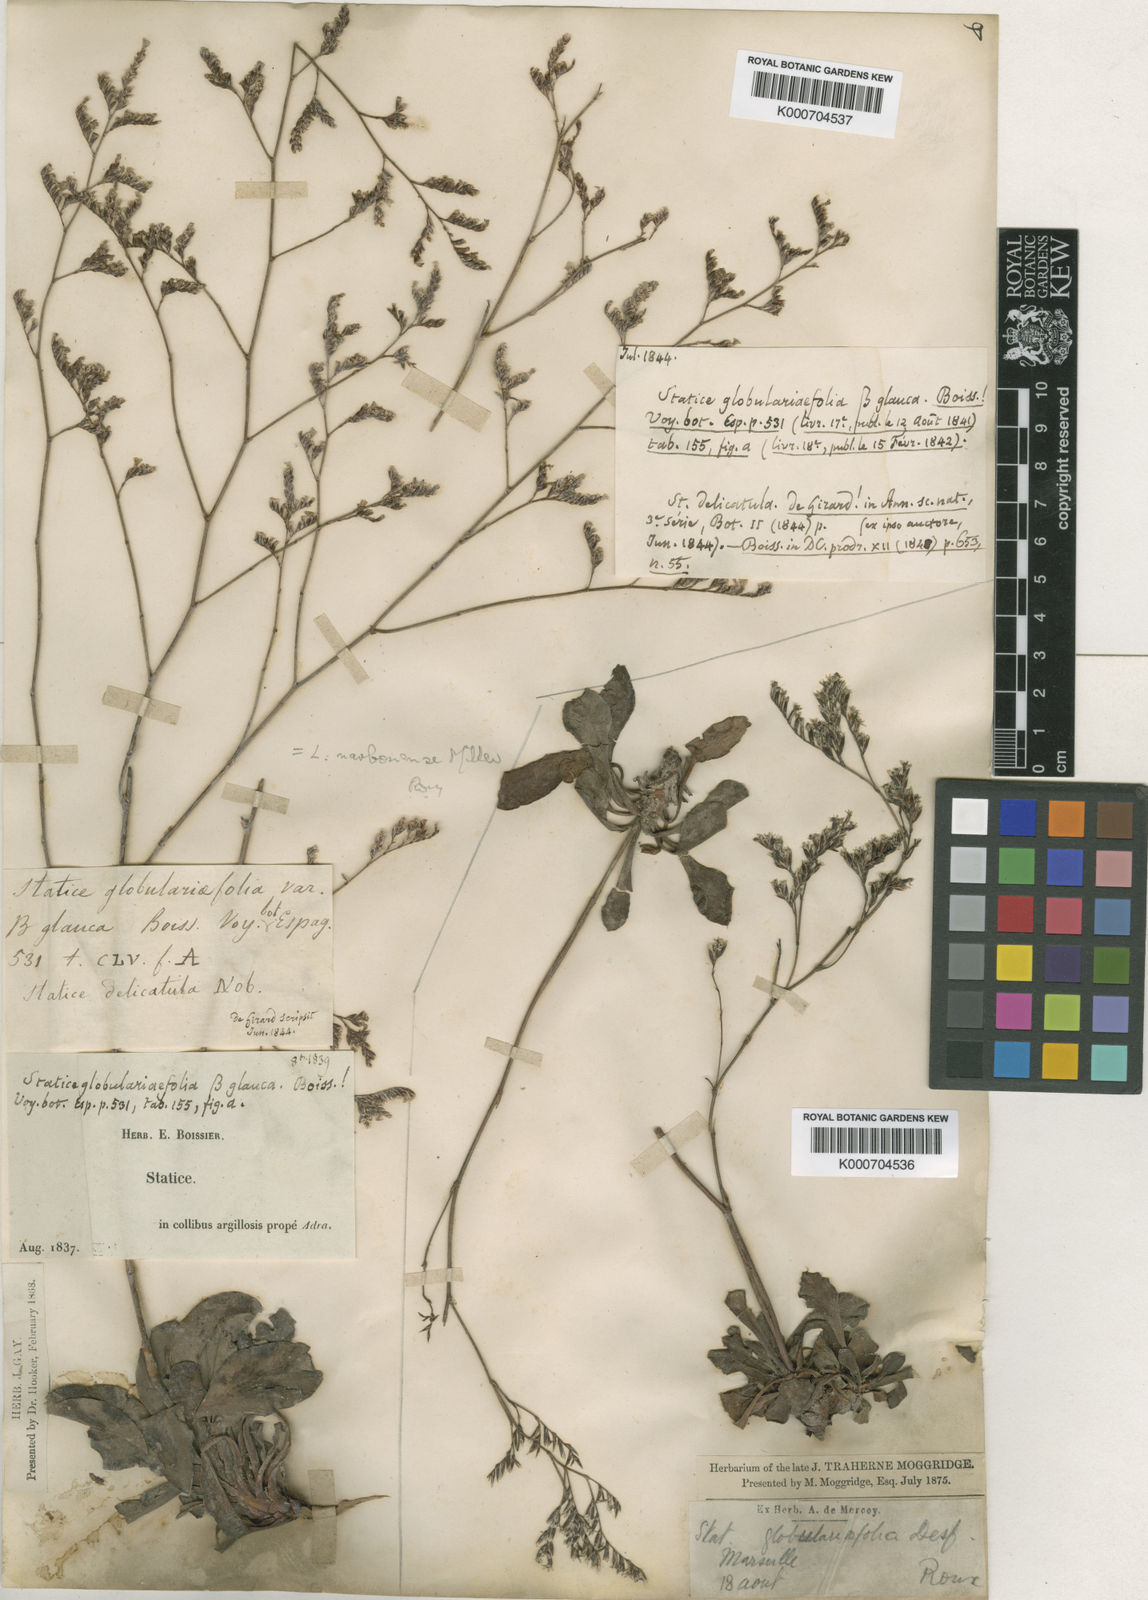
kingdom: Plantae
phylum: Tracheophyta
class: Magnoliopsida
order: Caryophyllales
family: Plumbaginaceae
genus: Limonium
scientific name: Limonium delicatulum
